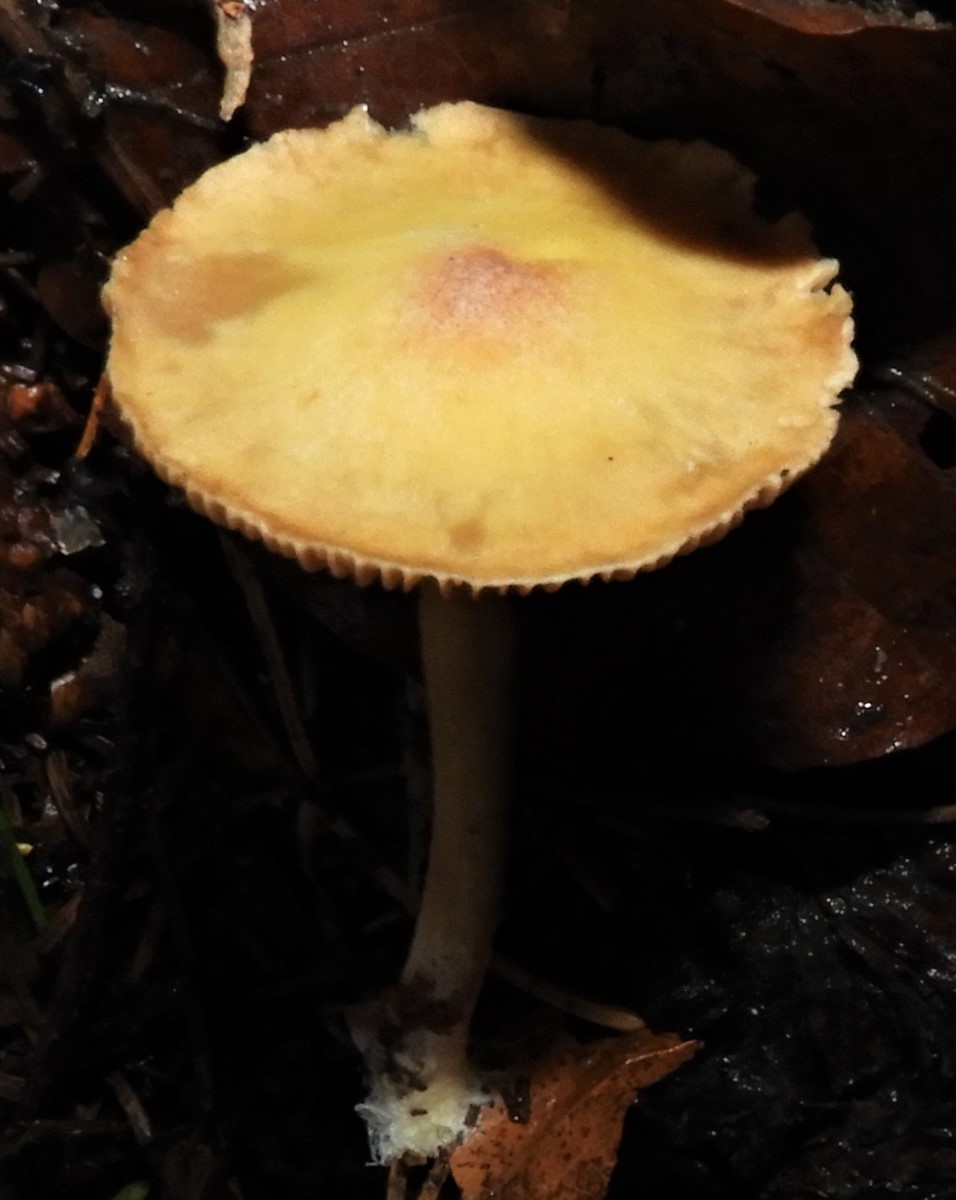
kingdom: Fungi
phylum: Basidiomycota
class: Agaricomycetes
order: Agaricales
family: Omphalotaceae
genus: Collybiopsis
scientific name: Collybiopsis peronata
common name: bestøvlet fladhat
